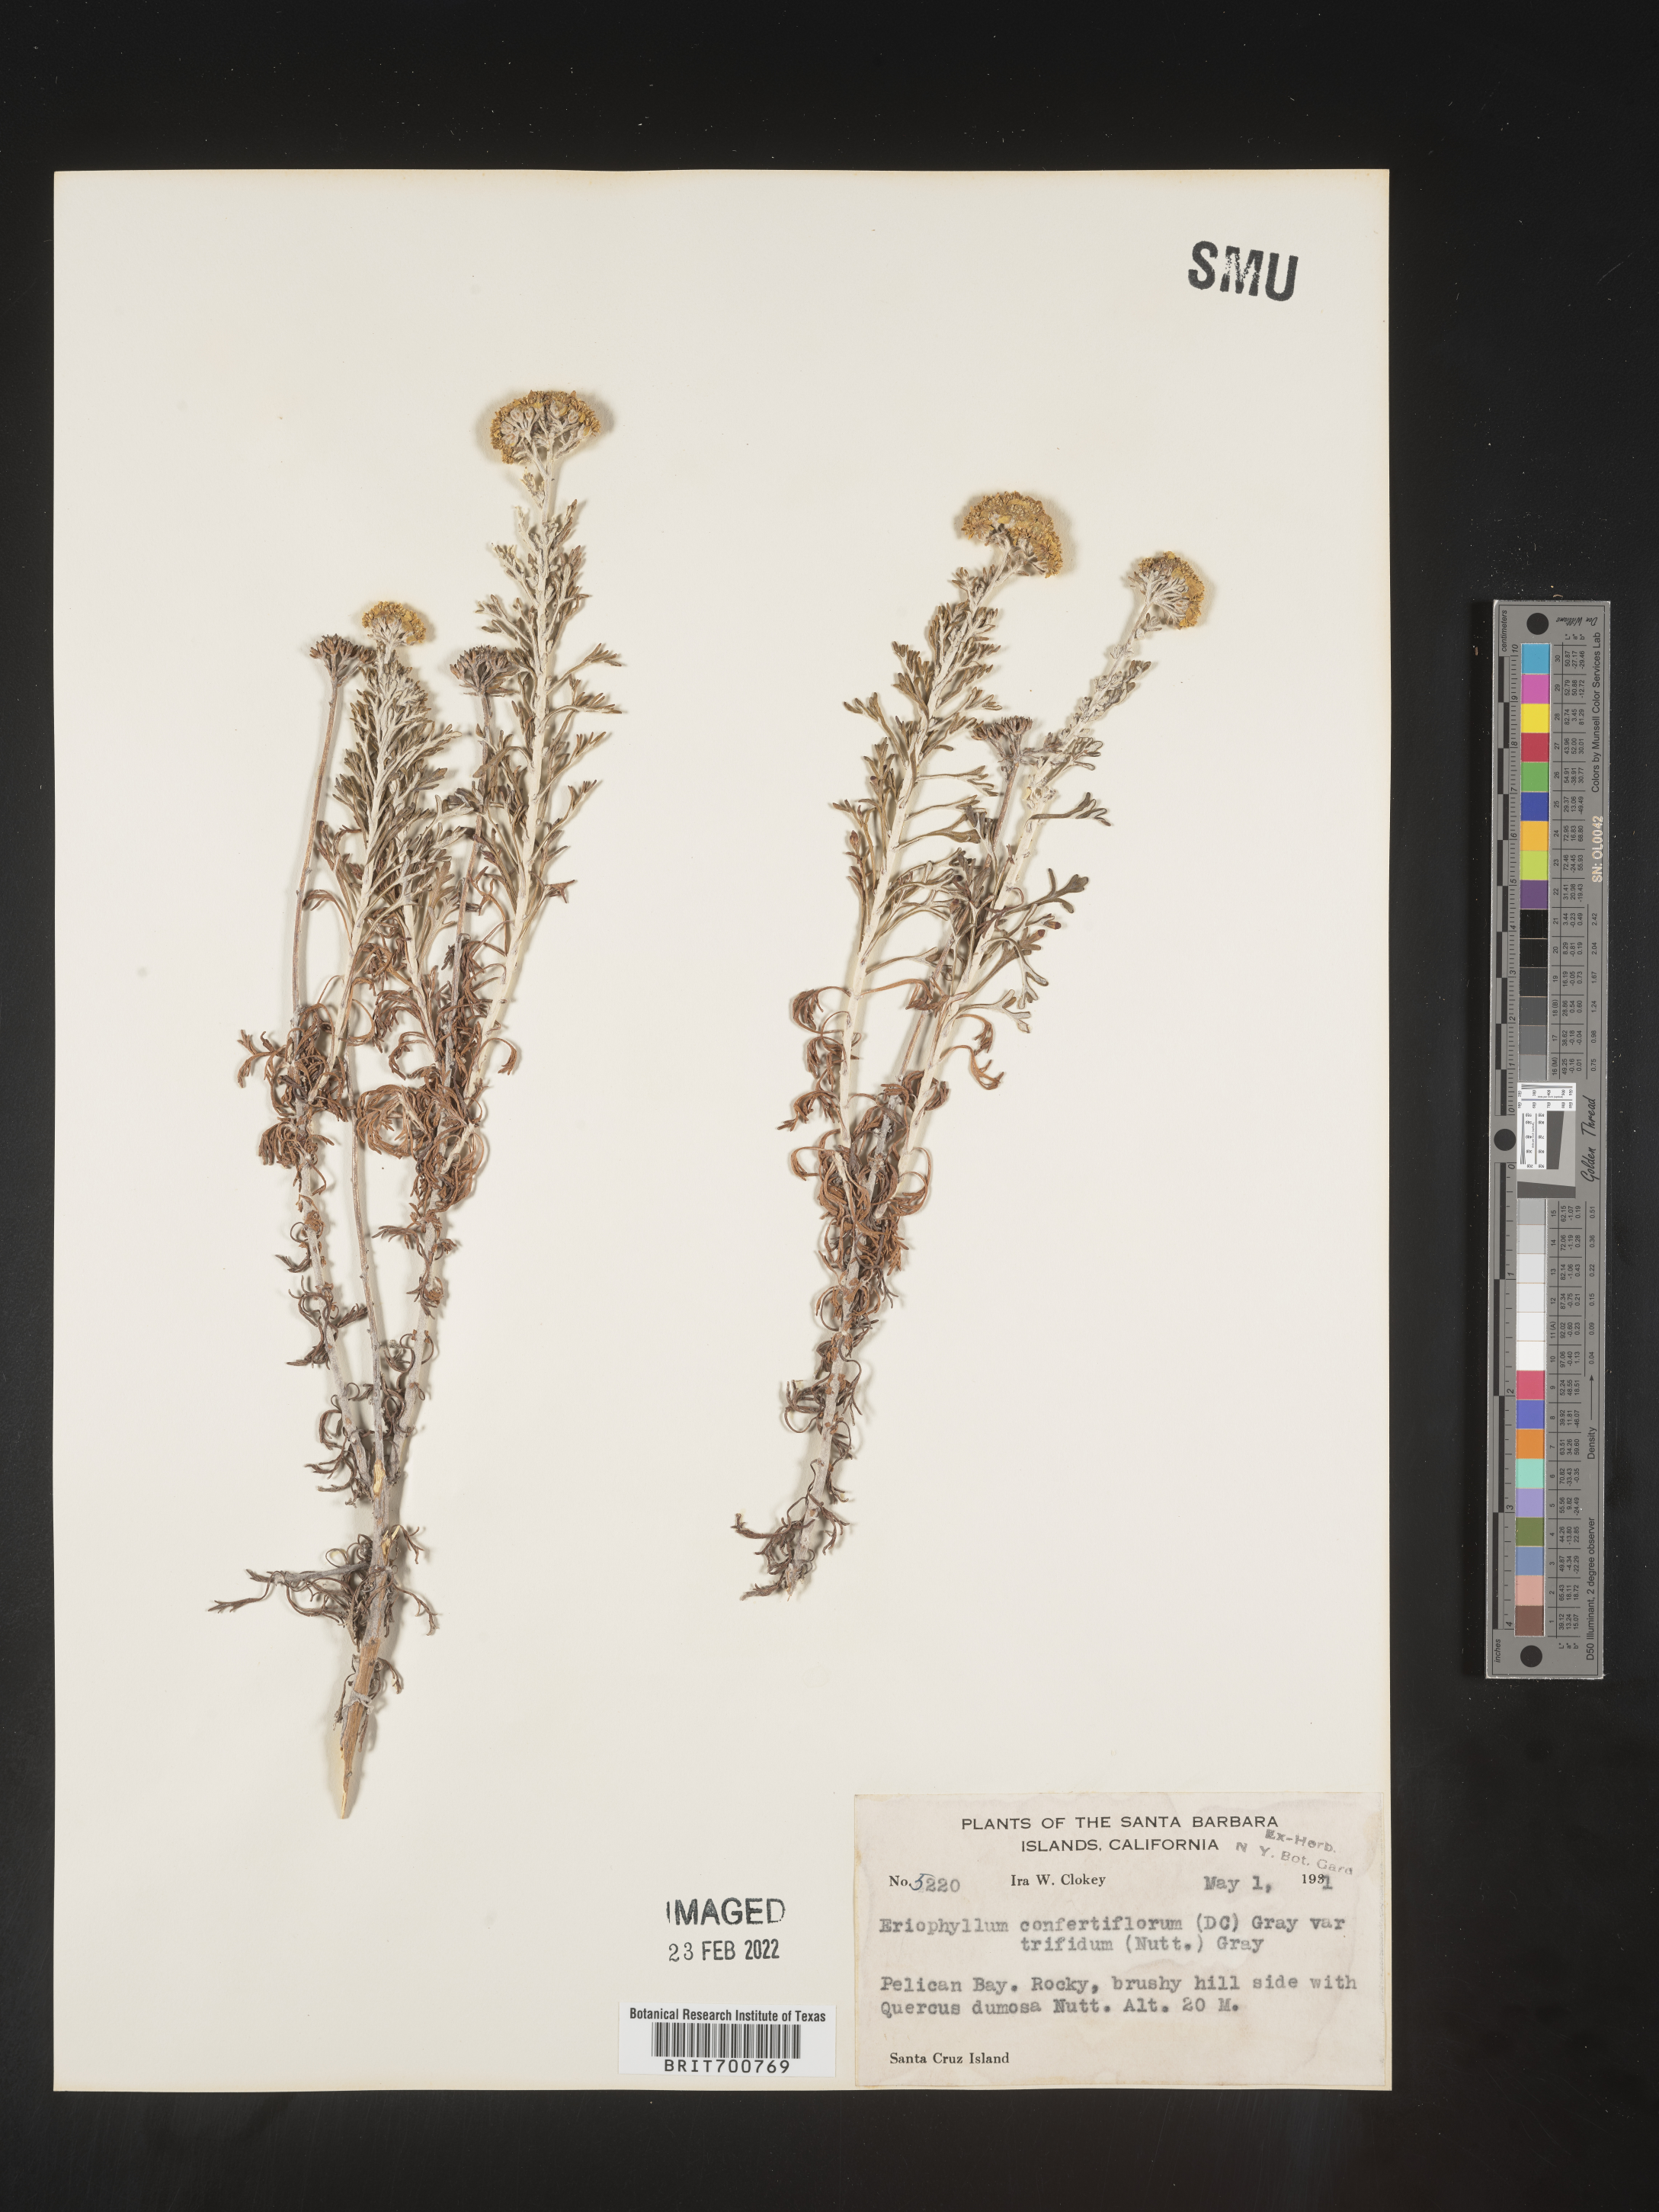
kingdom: Plantae
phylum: Tracheophyta
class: Magnoliopsida
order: Asterales
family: Asteraceae
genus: Eriophyllum
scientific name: Eriophyllum confertiflorum
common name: Golden-yarrow
